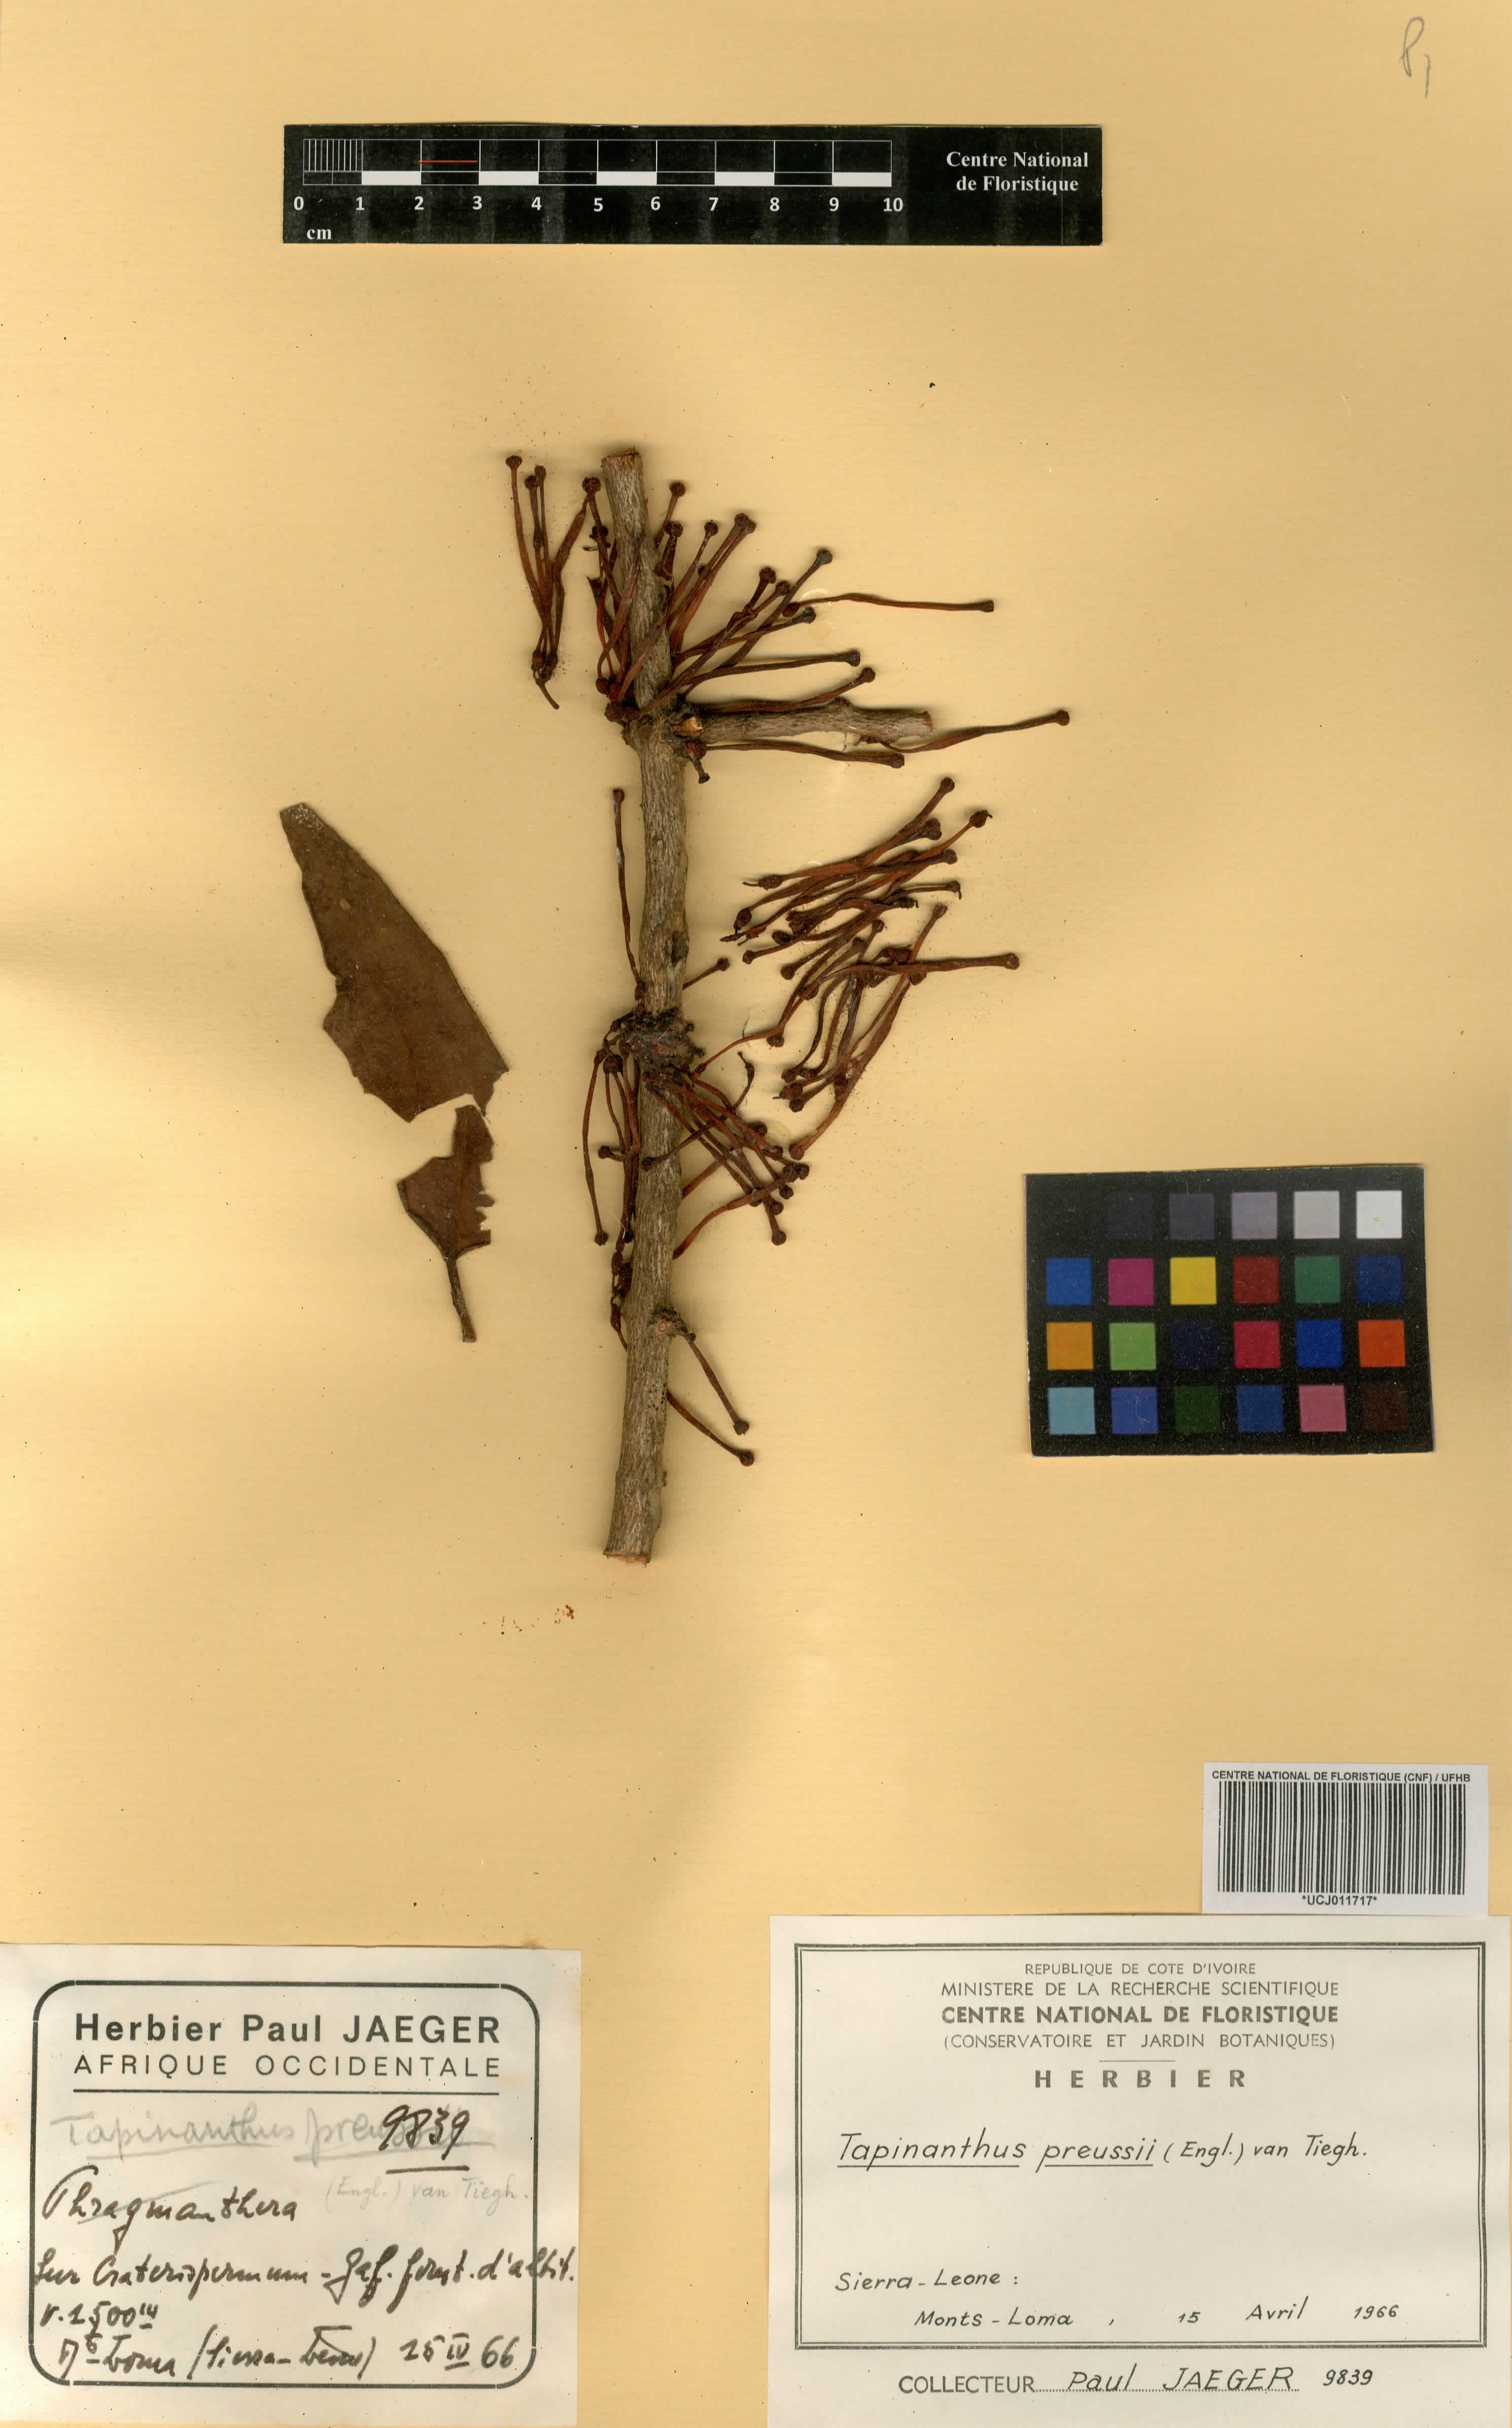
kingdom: Plantae
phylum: Tracheophyta
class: Magnoliopsida
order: Santalales
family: Loranthaceae
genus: Tapinanthus
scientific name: Tapinanthus preussii
